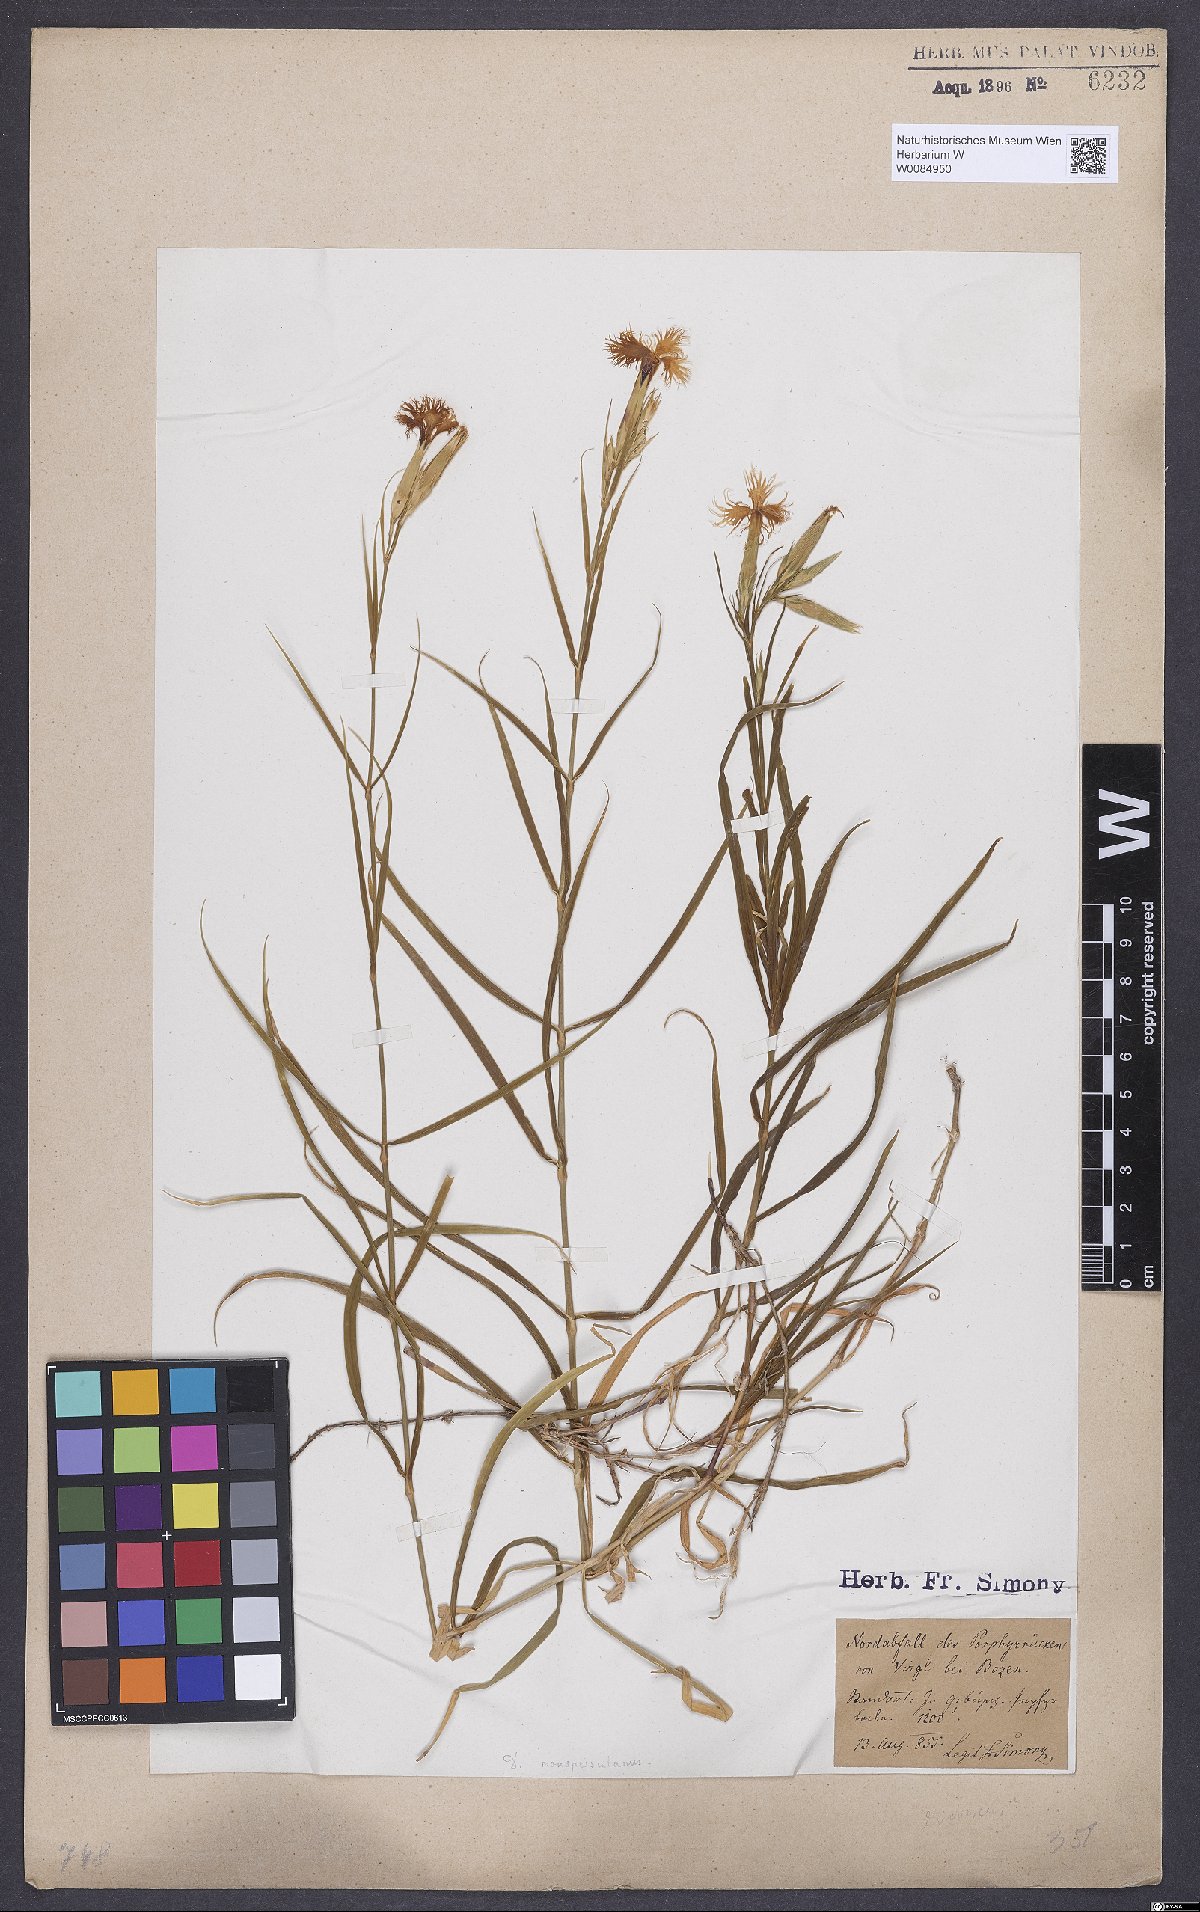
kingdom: Plantae
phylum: Tracheophyta
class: Magnoliopsida
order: Caryophyllales
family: Caryophyllaceae
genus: Dianthus
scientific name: Dianthus hyssopifolius
